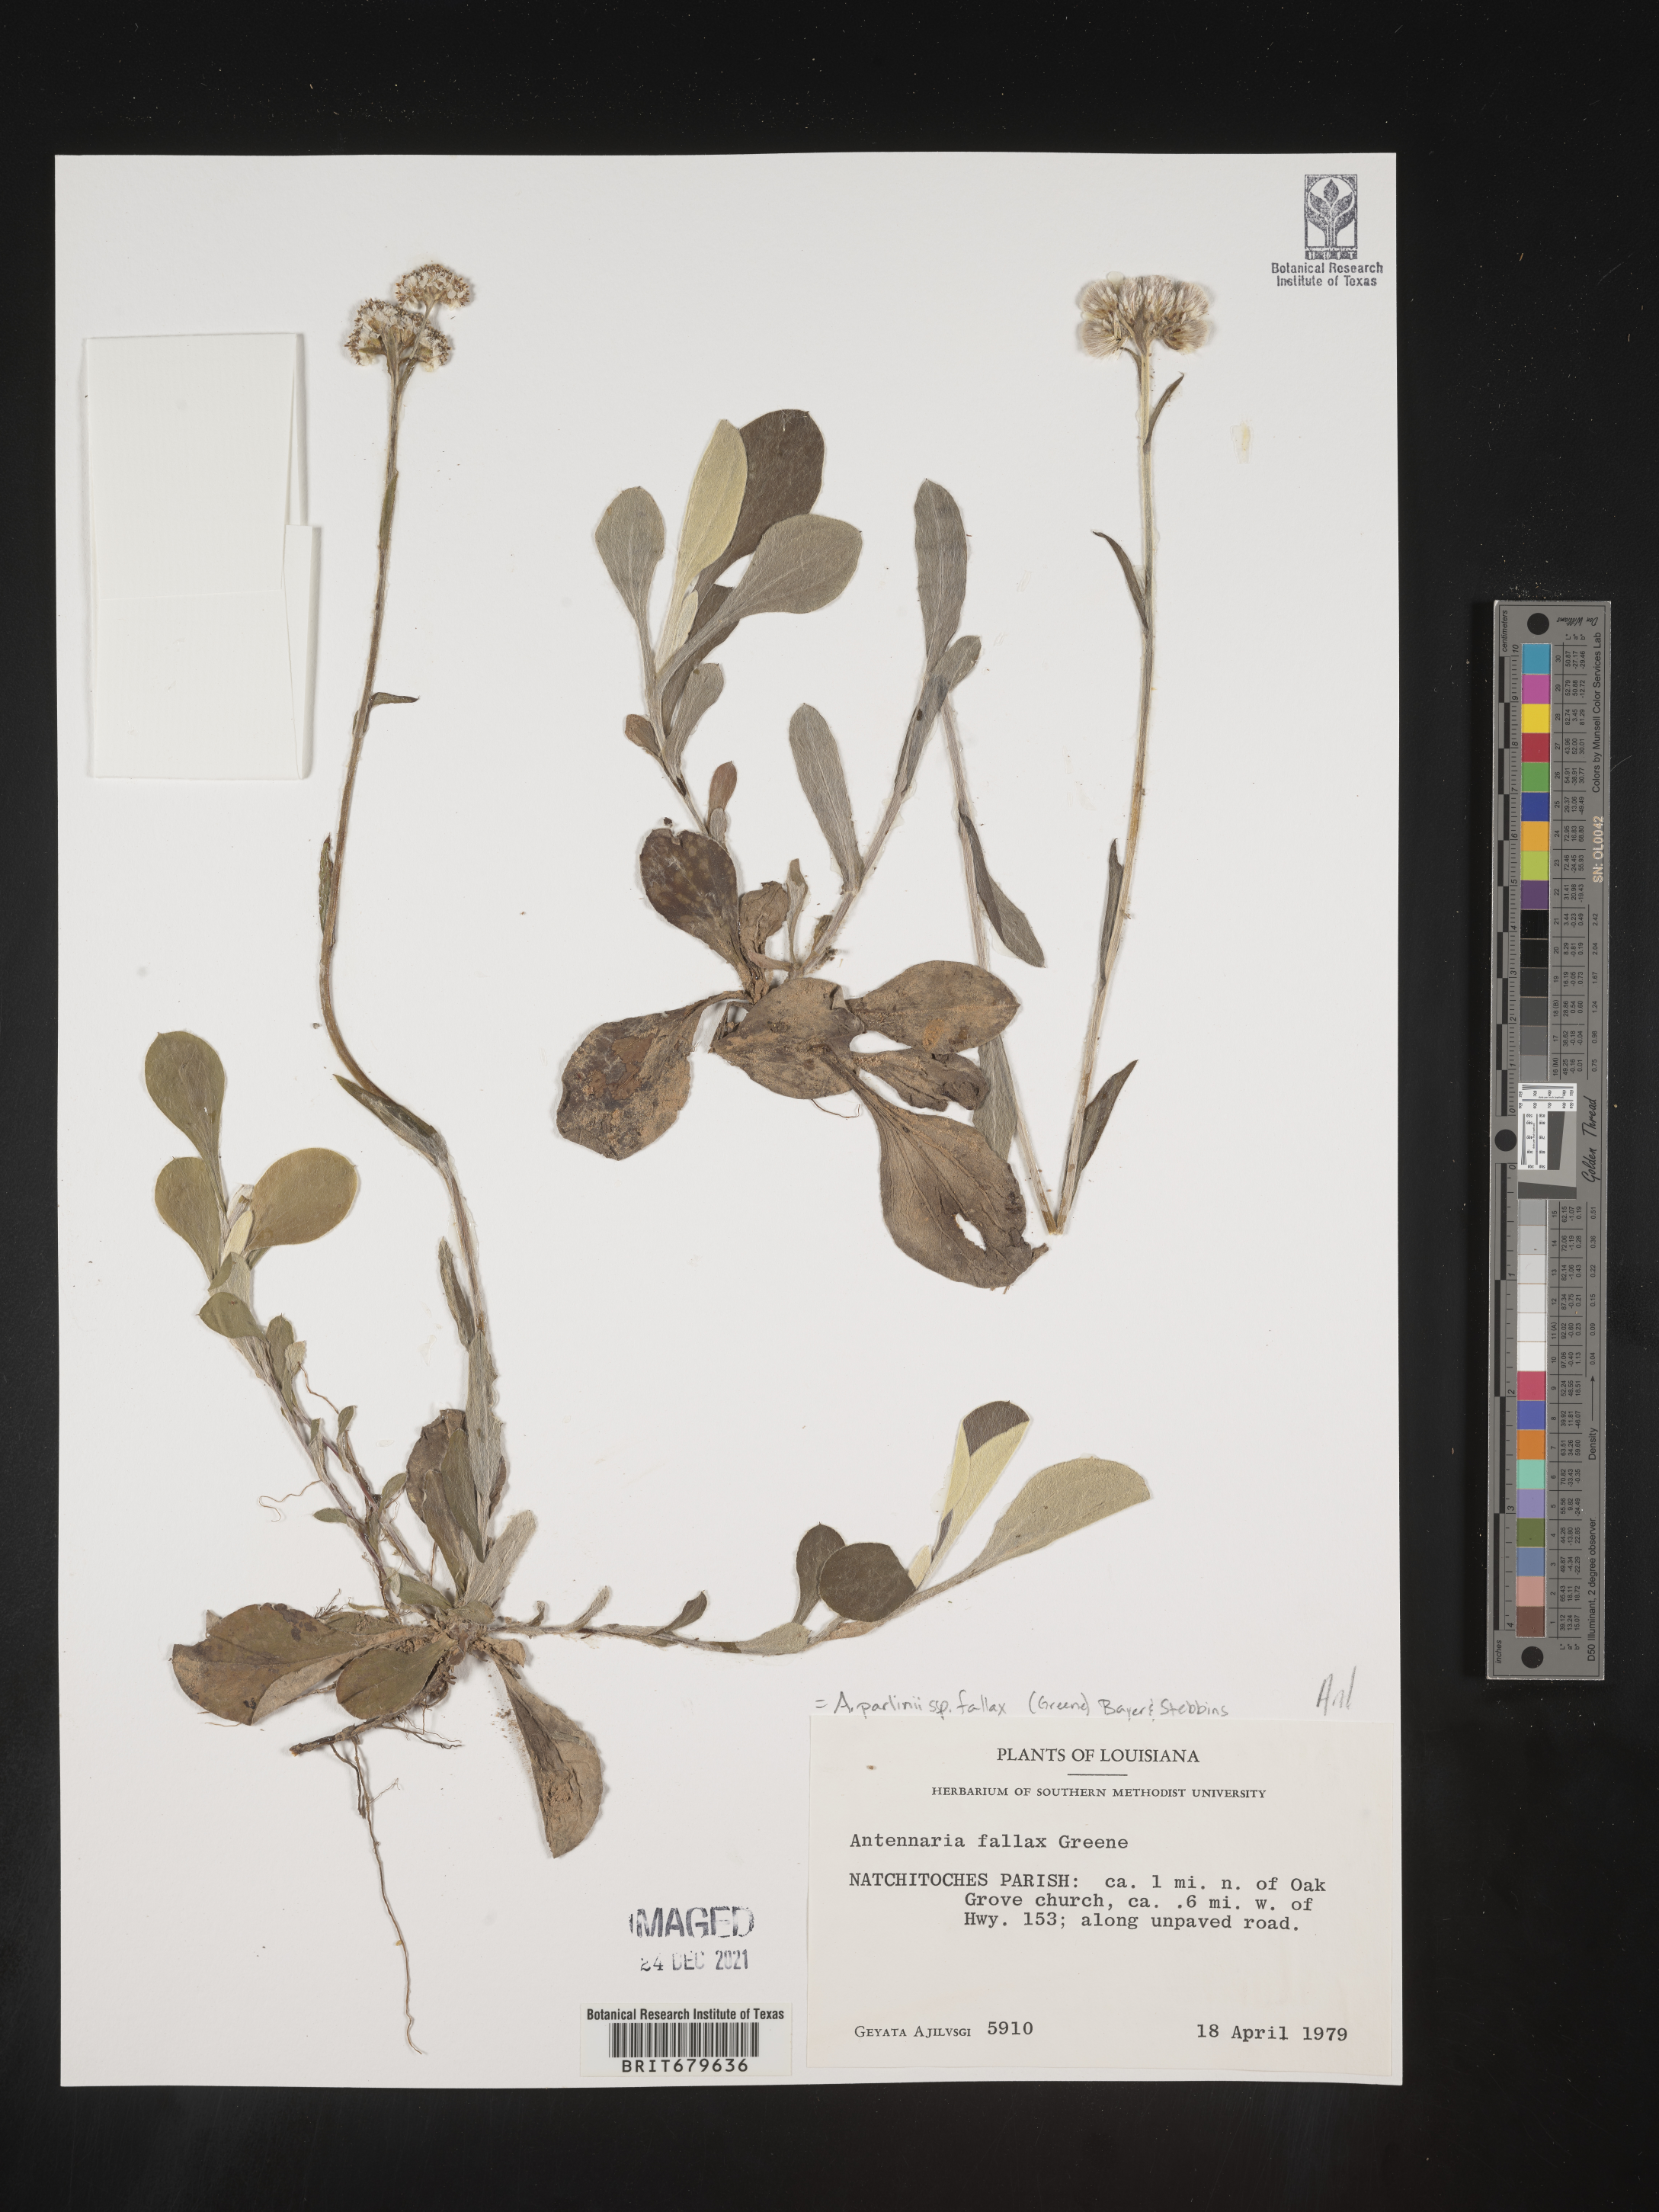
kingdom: Plantae
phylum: Tracheophyta
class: Magnoliopsida
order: Asterales
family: Asteraceae
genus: Antennaria
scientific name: Antennaria parlinii
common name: Parlin's pussytoes
